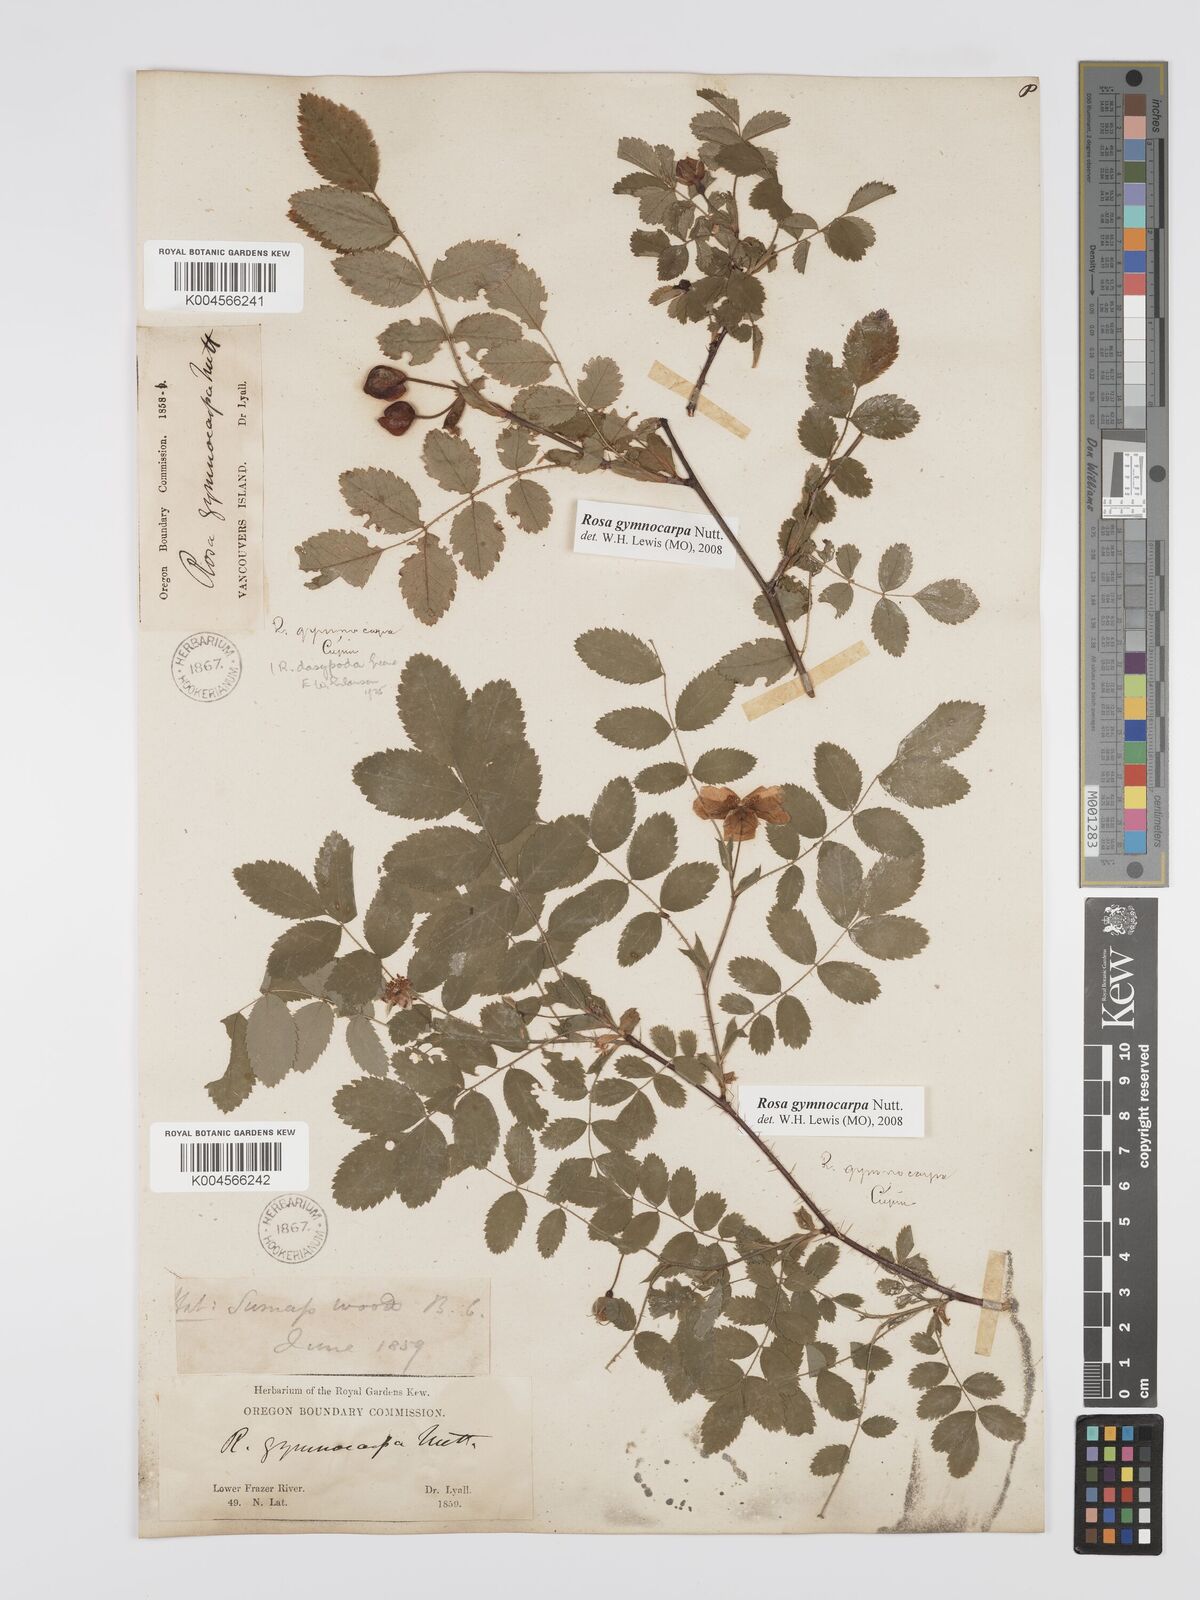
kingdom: Plantae
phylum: Tracheophyta
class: Magnoliopsida
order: Rosales
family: Rosaceae
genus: Rosa
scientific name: Rosa gymnocarpa
